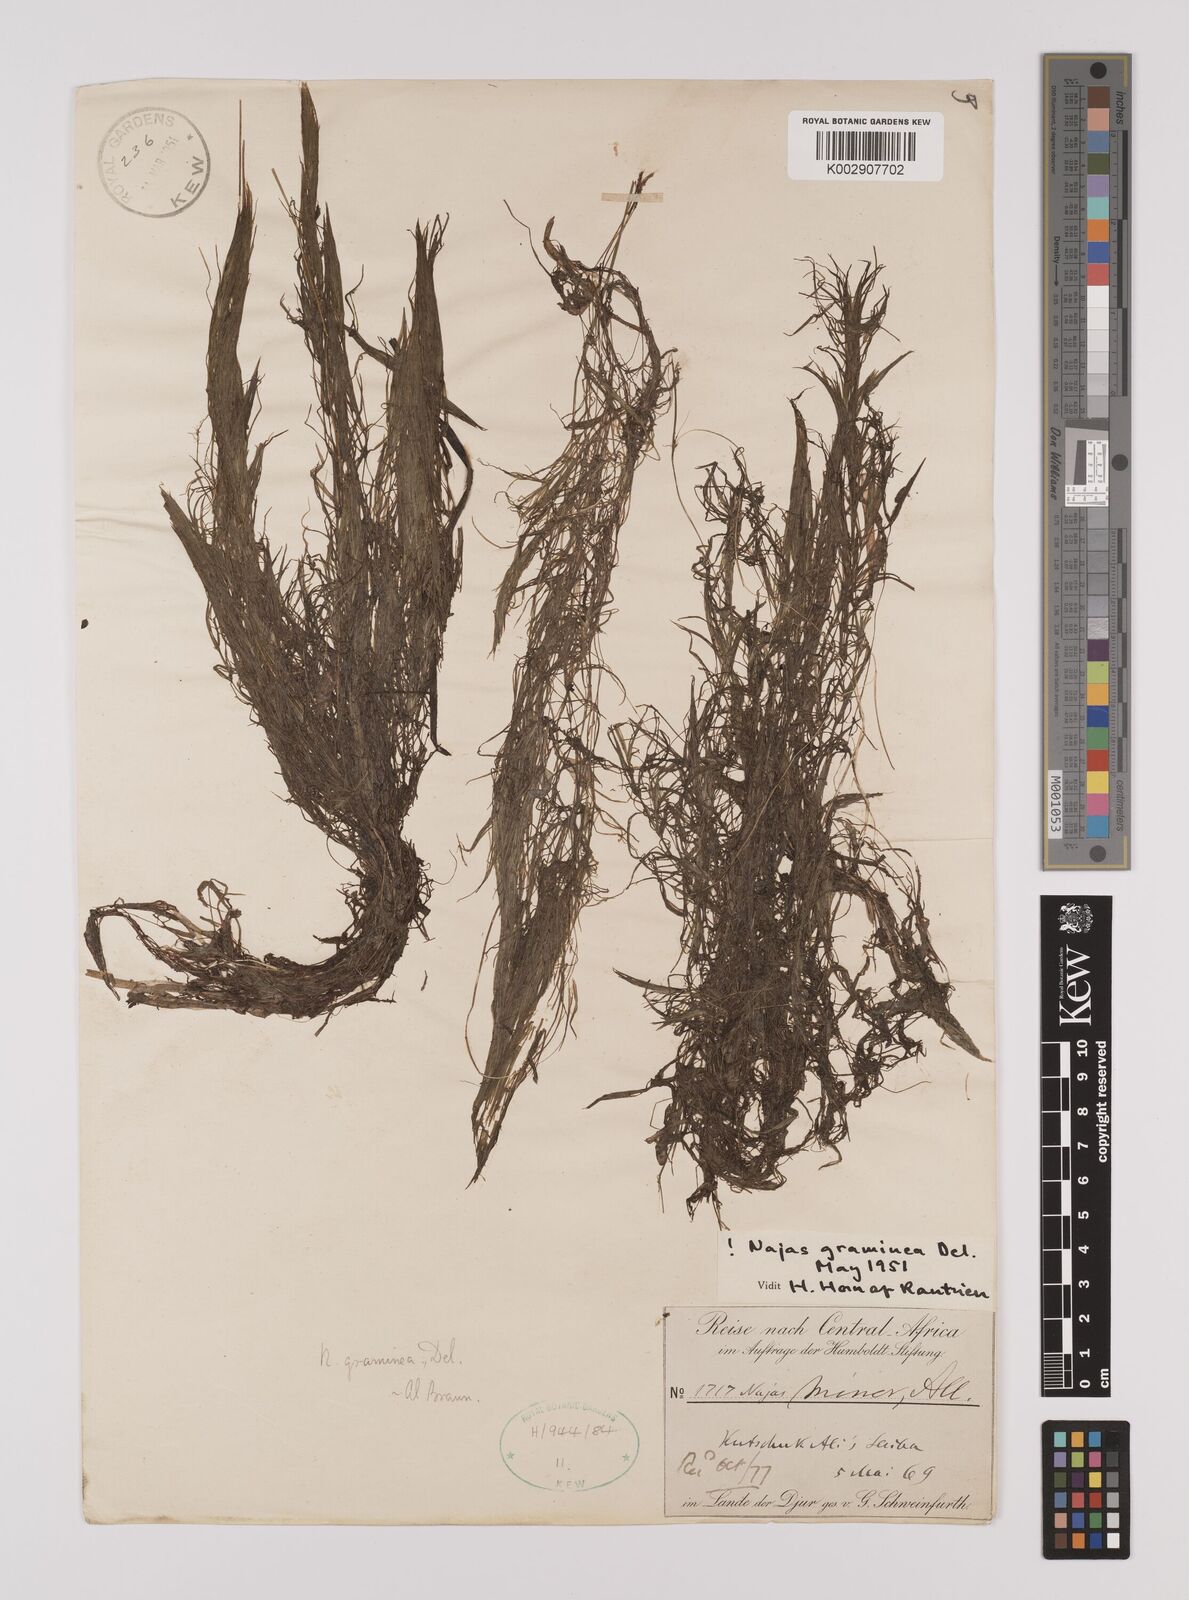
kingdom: Plantae
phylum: Tracheophyta
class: Liliopsida
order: Alismatales
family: Hydrocharitaceae
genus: Najas
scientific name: Najas graminea
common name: Ricefield waternymph
